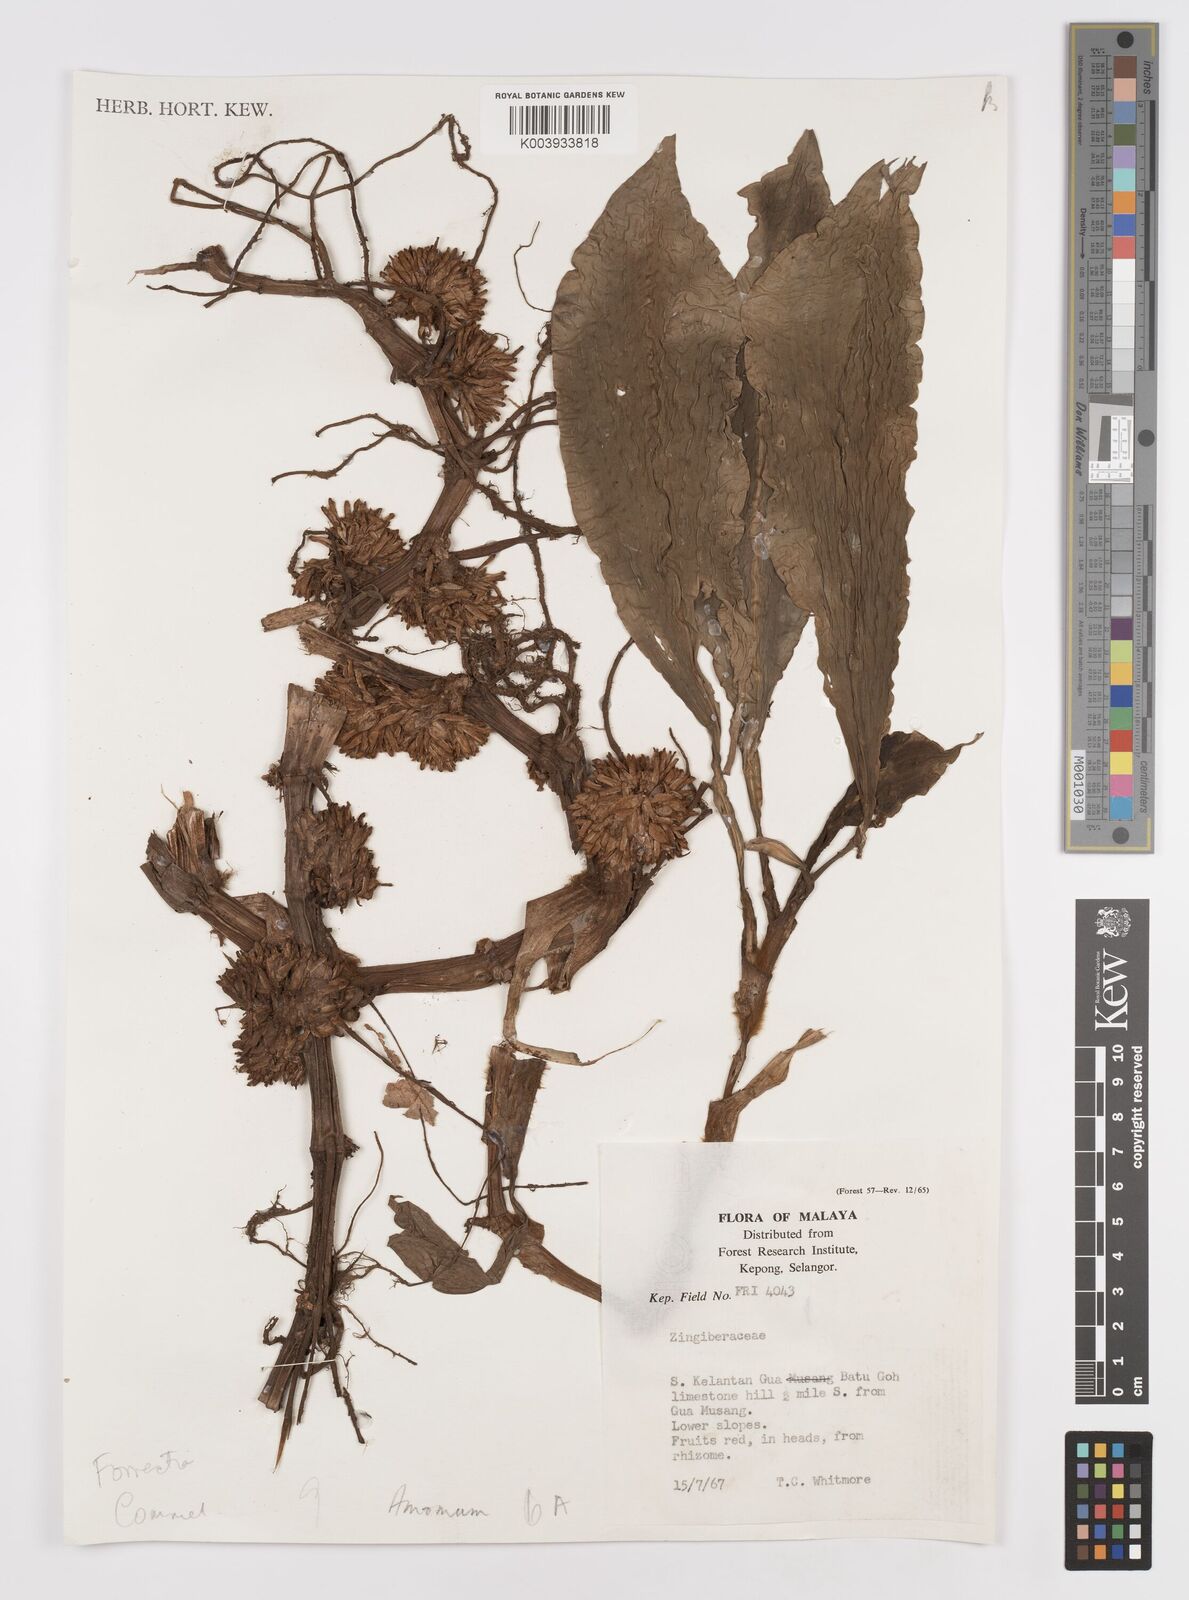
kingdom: Plantae
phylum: Tracheophyta
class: Liliopsida
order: Commelinales
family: Commelinaceae
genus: Amischotolype
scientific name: Amischotolype
